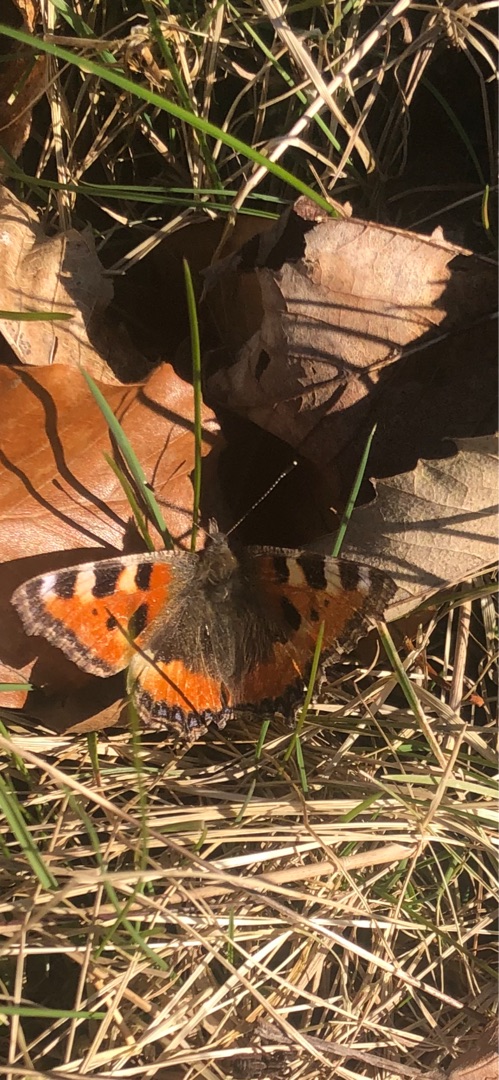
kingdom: Animalia
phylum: Arthropoda
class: Insecta
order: Lepidoptera
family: Nymphalidae
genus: Aglais
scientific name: Aglais urticae
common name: Nældens takvinge
